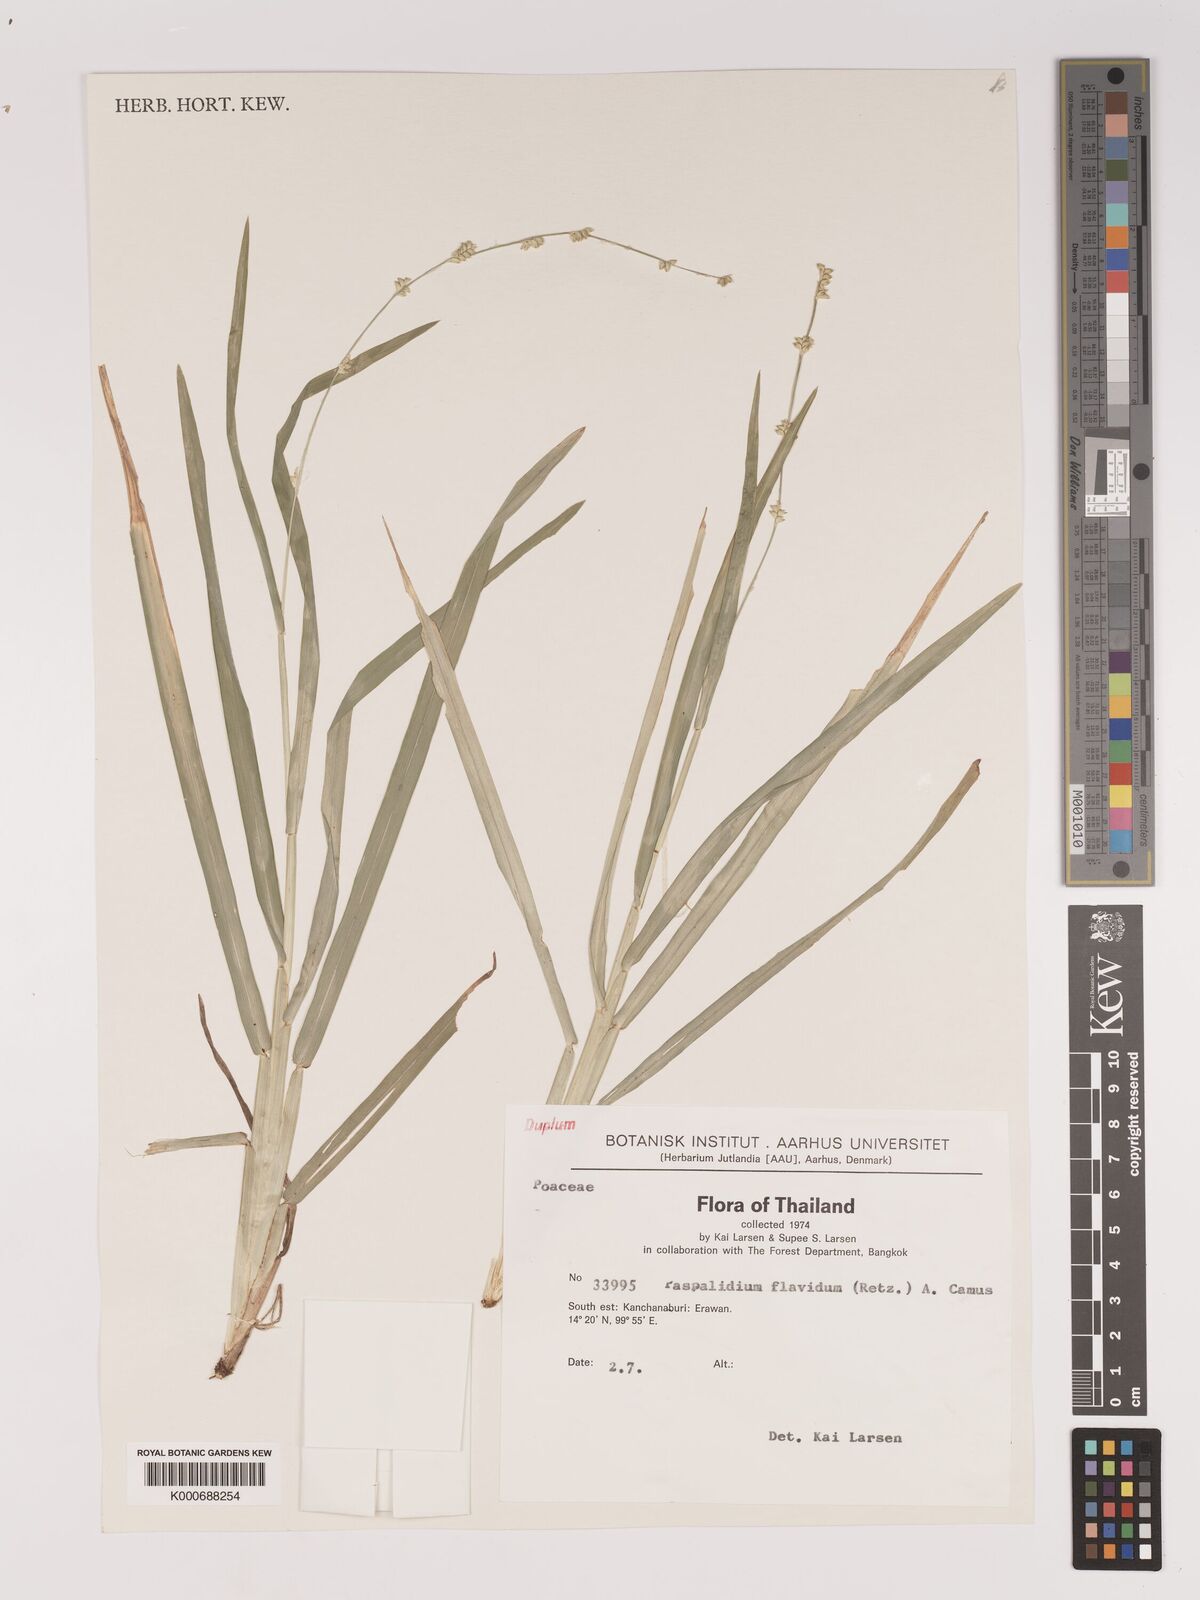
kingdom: Plantae
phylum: Tracheophyta
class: Liliopsida
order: Poales
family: Poaceae
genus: Setaria
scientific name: Setaria flavida
